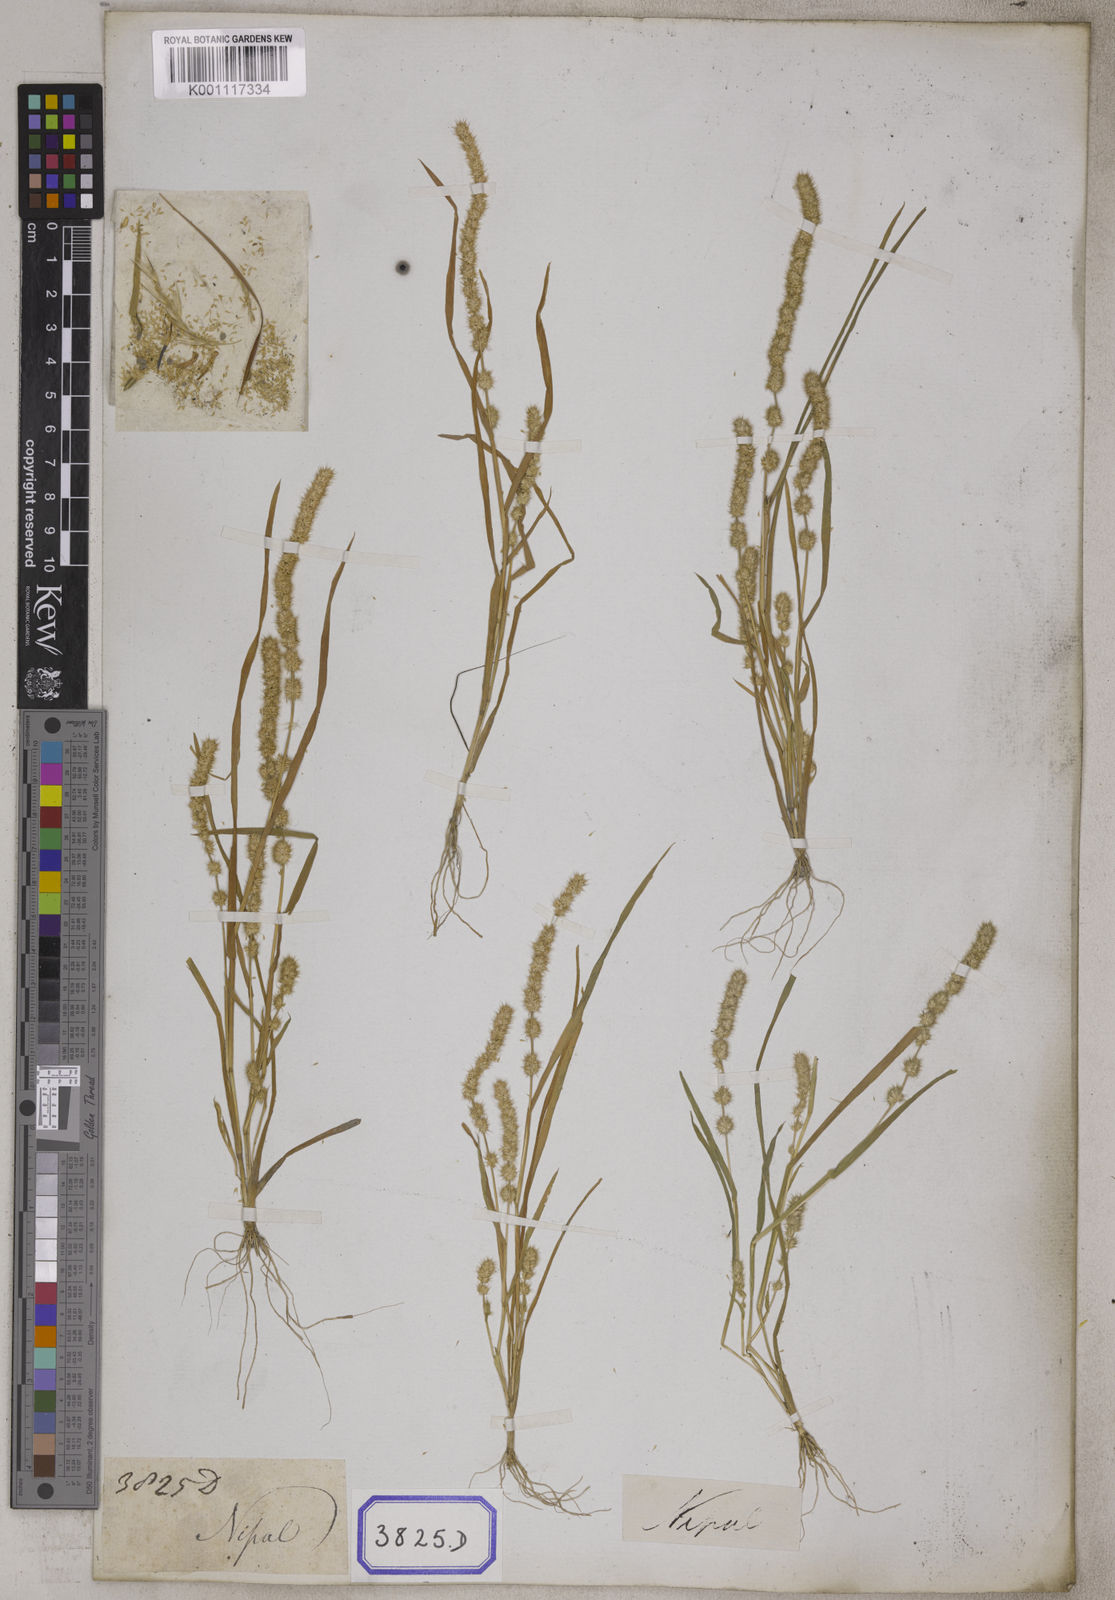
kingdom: Plantae
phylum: Tracheophyta
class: Liliopsida
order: Poales
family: Poaceae
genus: Elytrophorus
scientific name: Elytrophorus spicatus
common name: Spike grass
